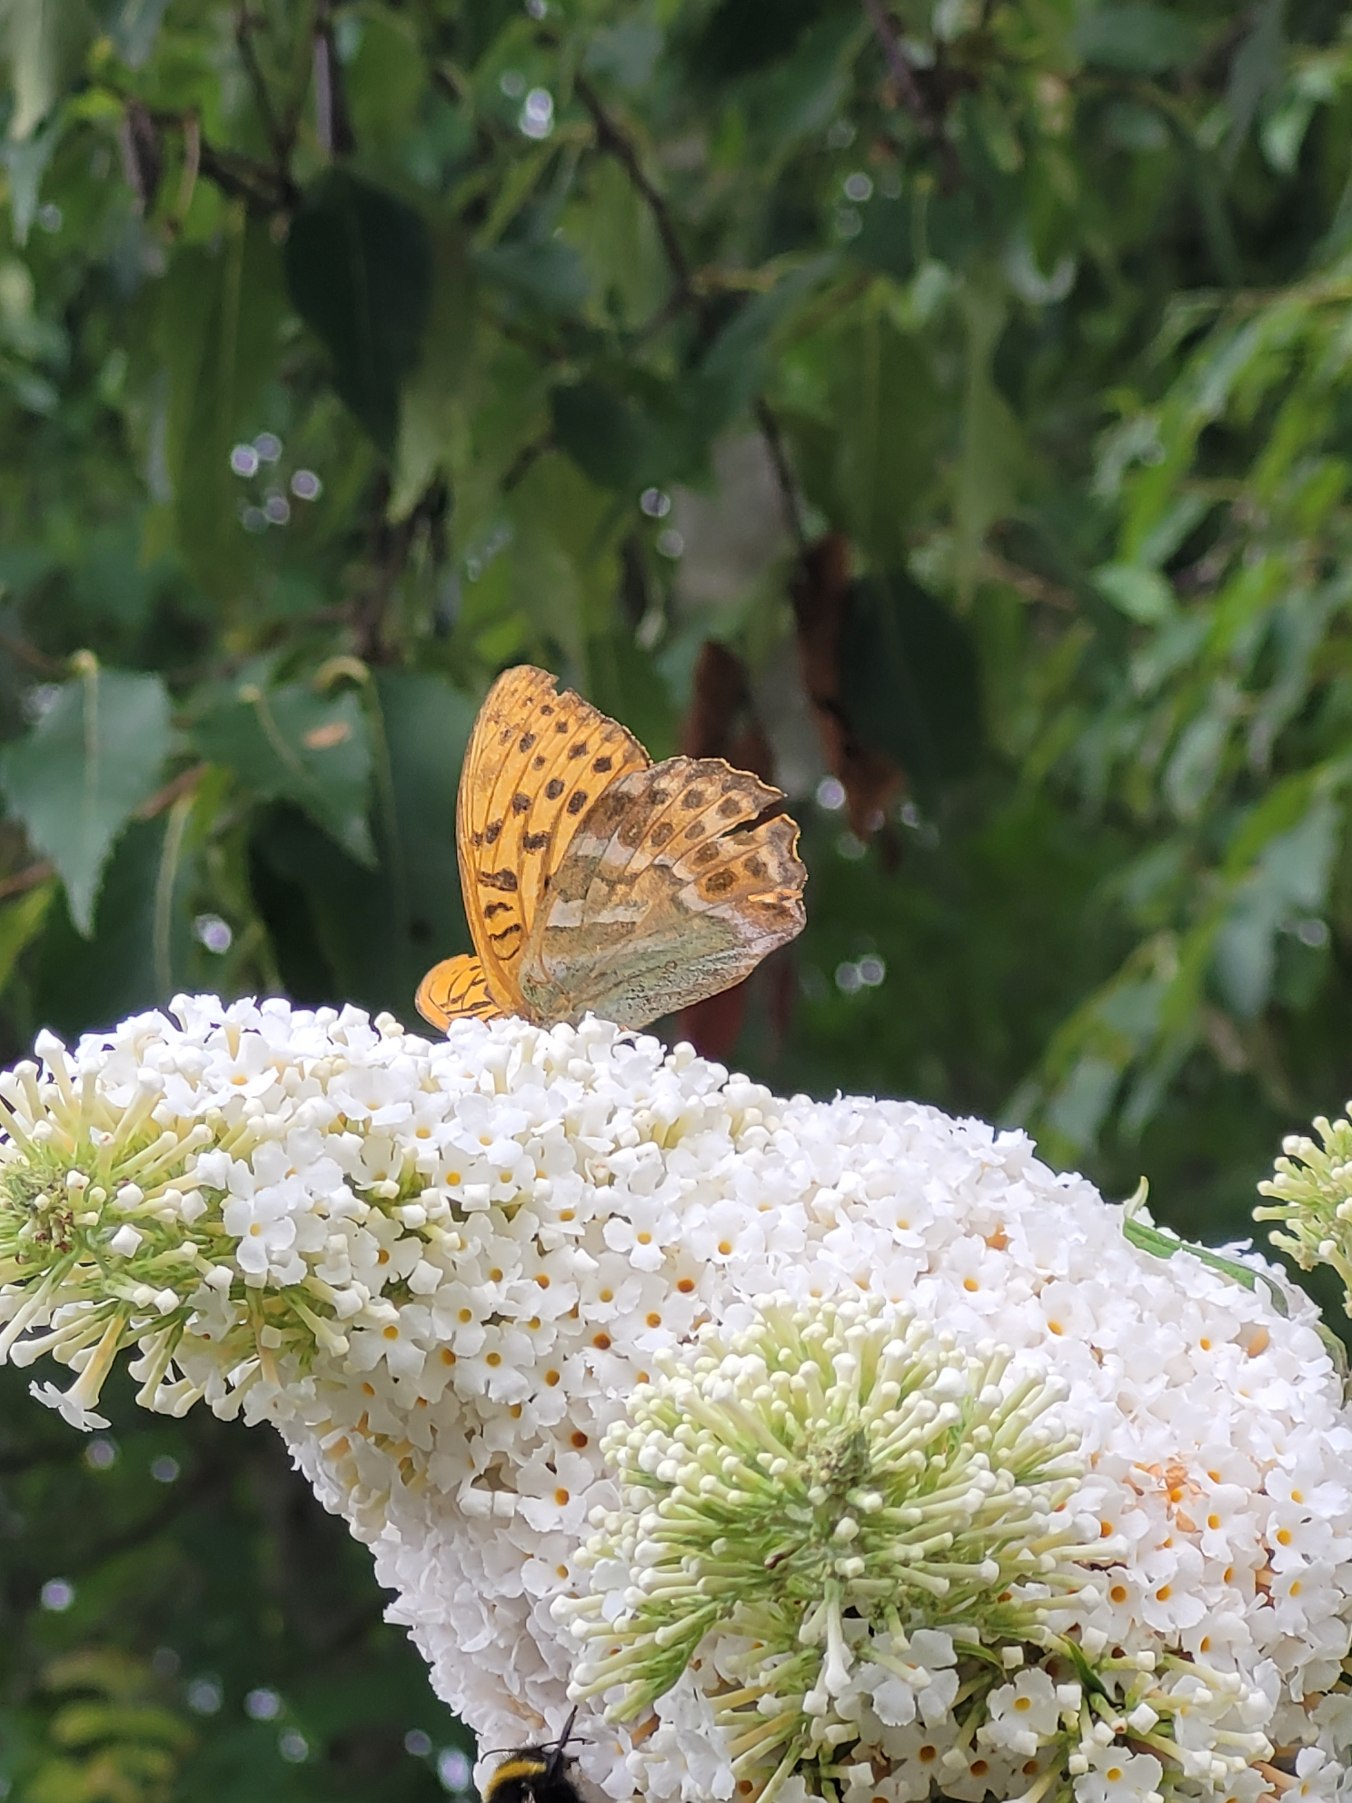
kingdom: Animalia
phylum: Arthropoda
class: Insecta
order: Lepidoptera
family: Nymphalidae
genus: Argynnis
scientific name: Argynnis paphia
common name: Kejserkåbe
